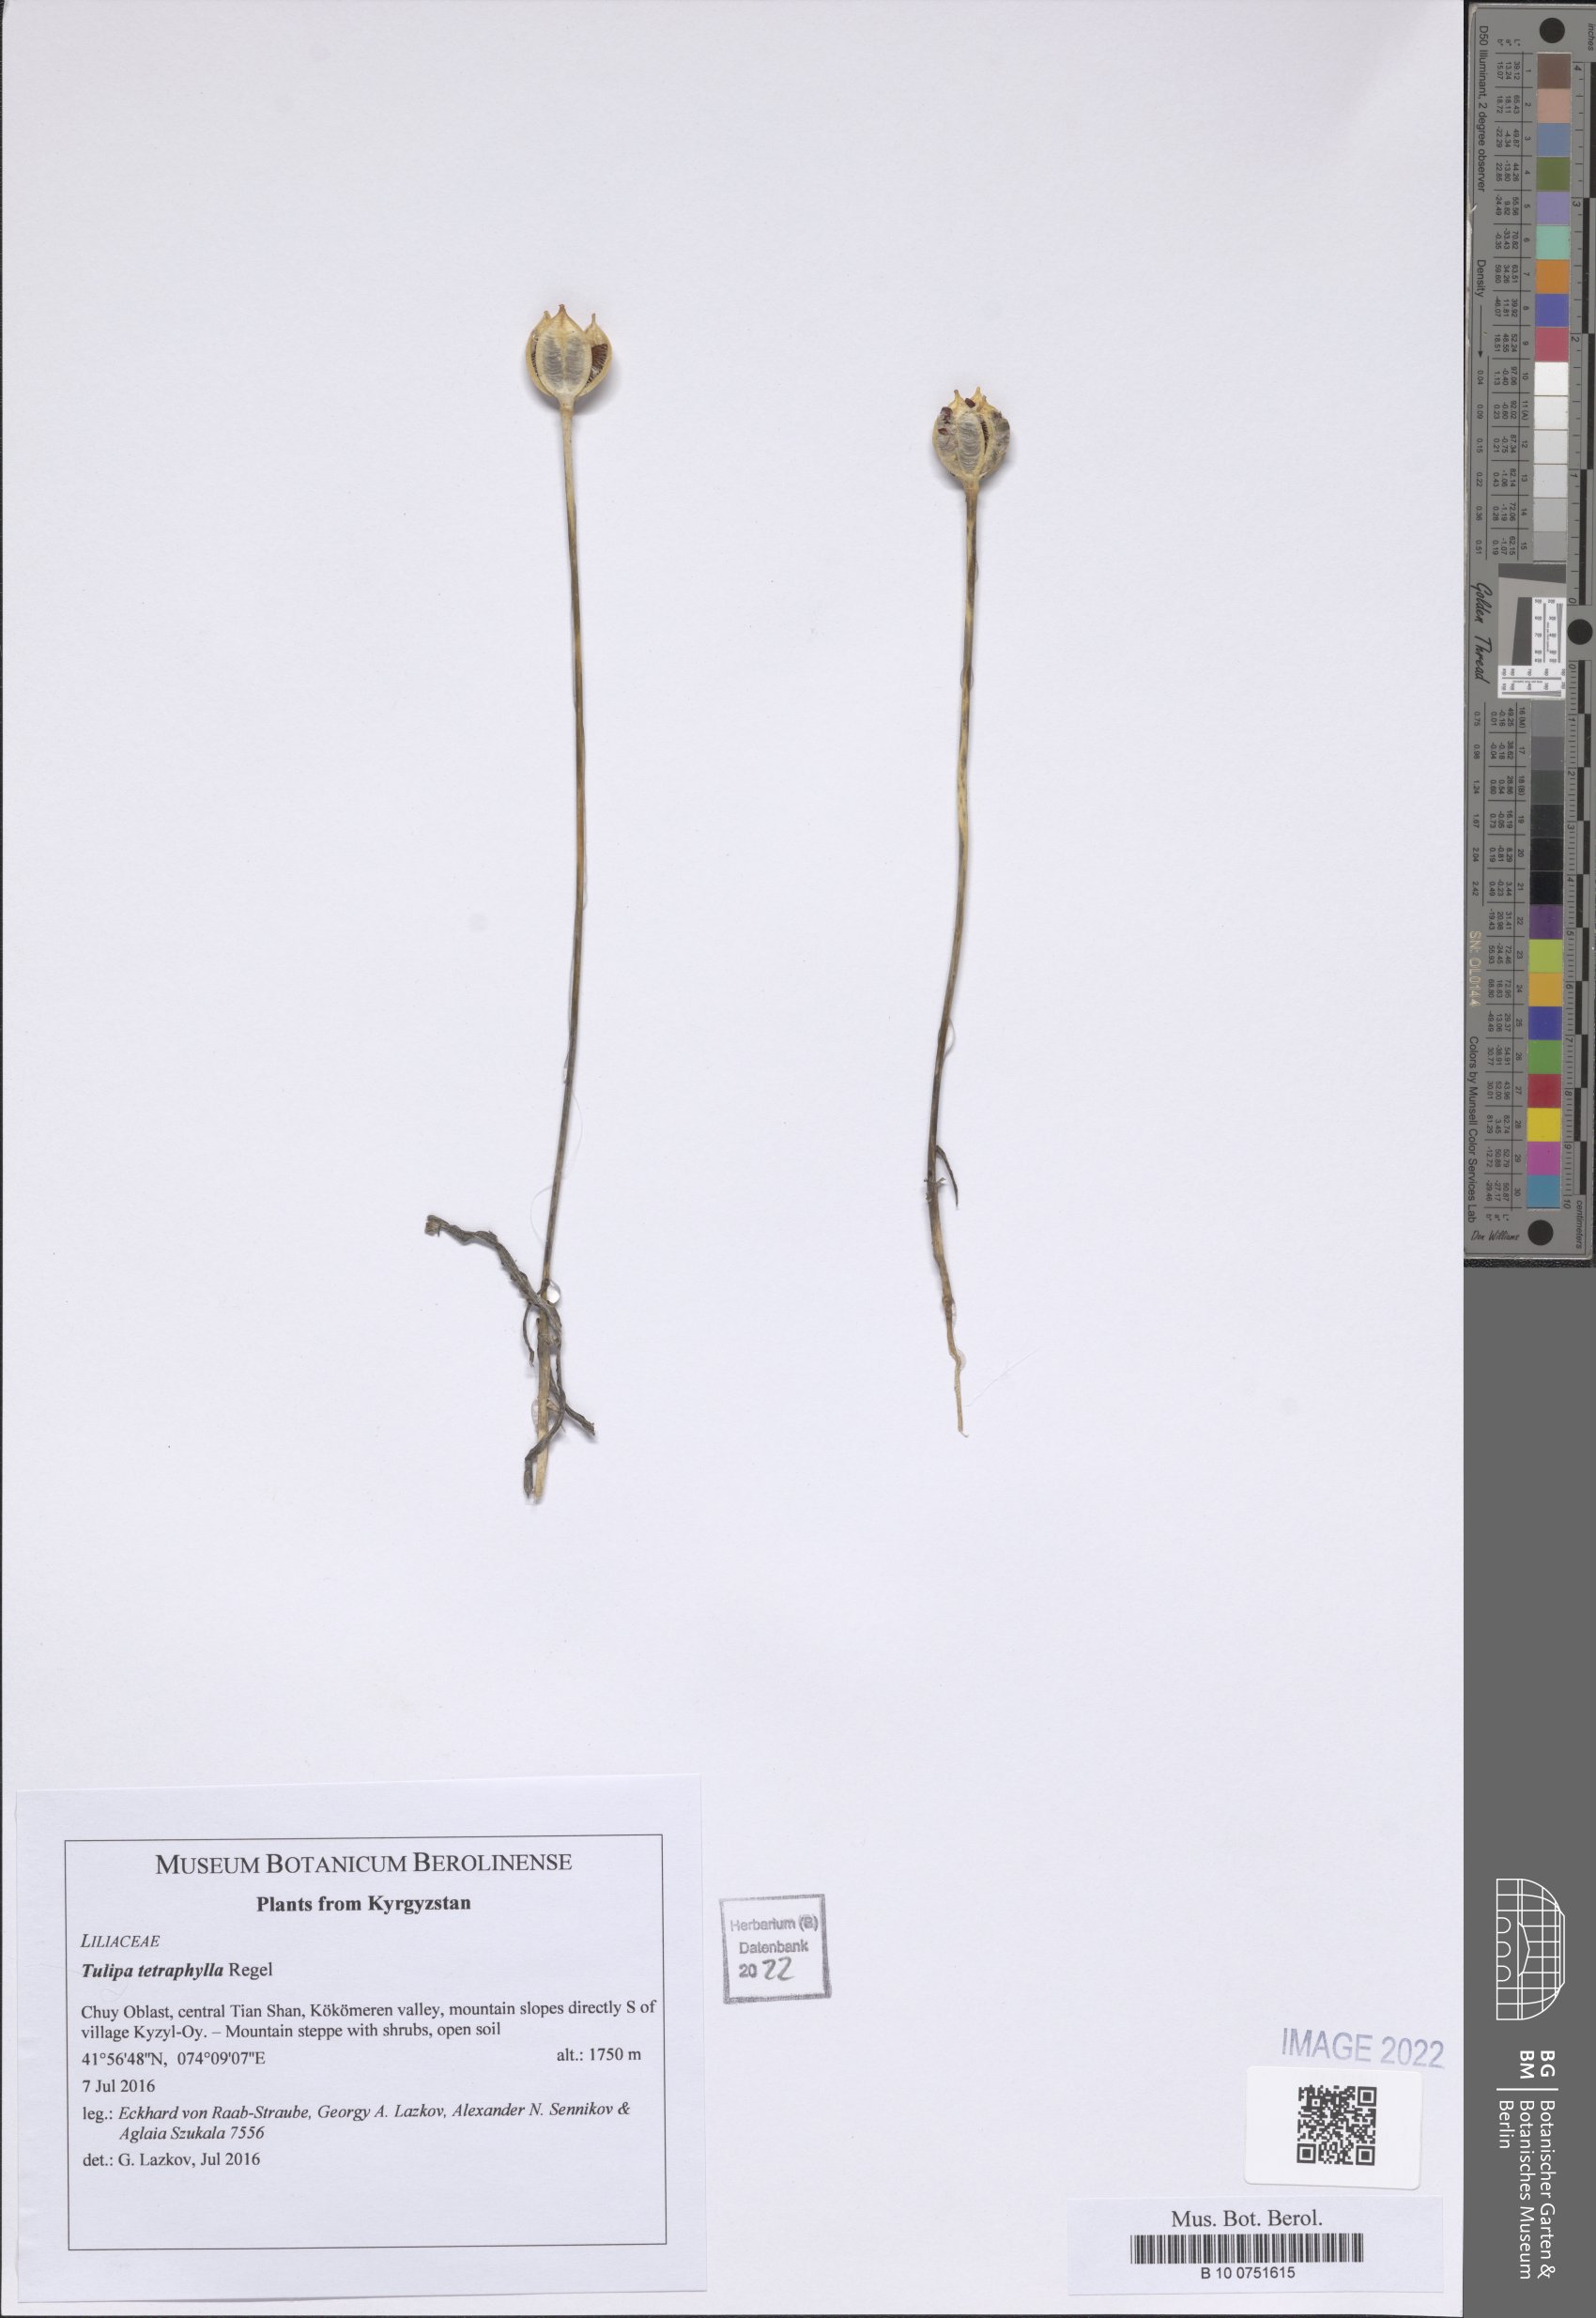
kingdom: Plantae
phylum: Tracheophyta
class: Liliopsida
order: Liliales
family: Liliaceae
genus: Tulipa
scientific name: Tulipa tetraphylla
